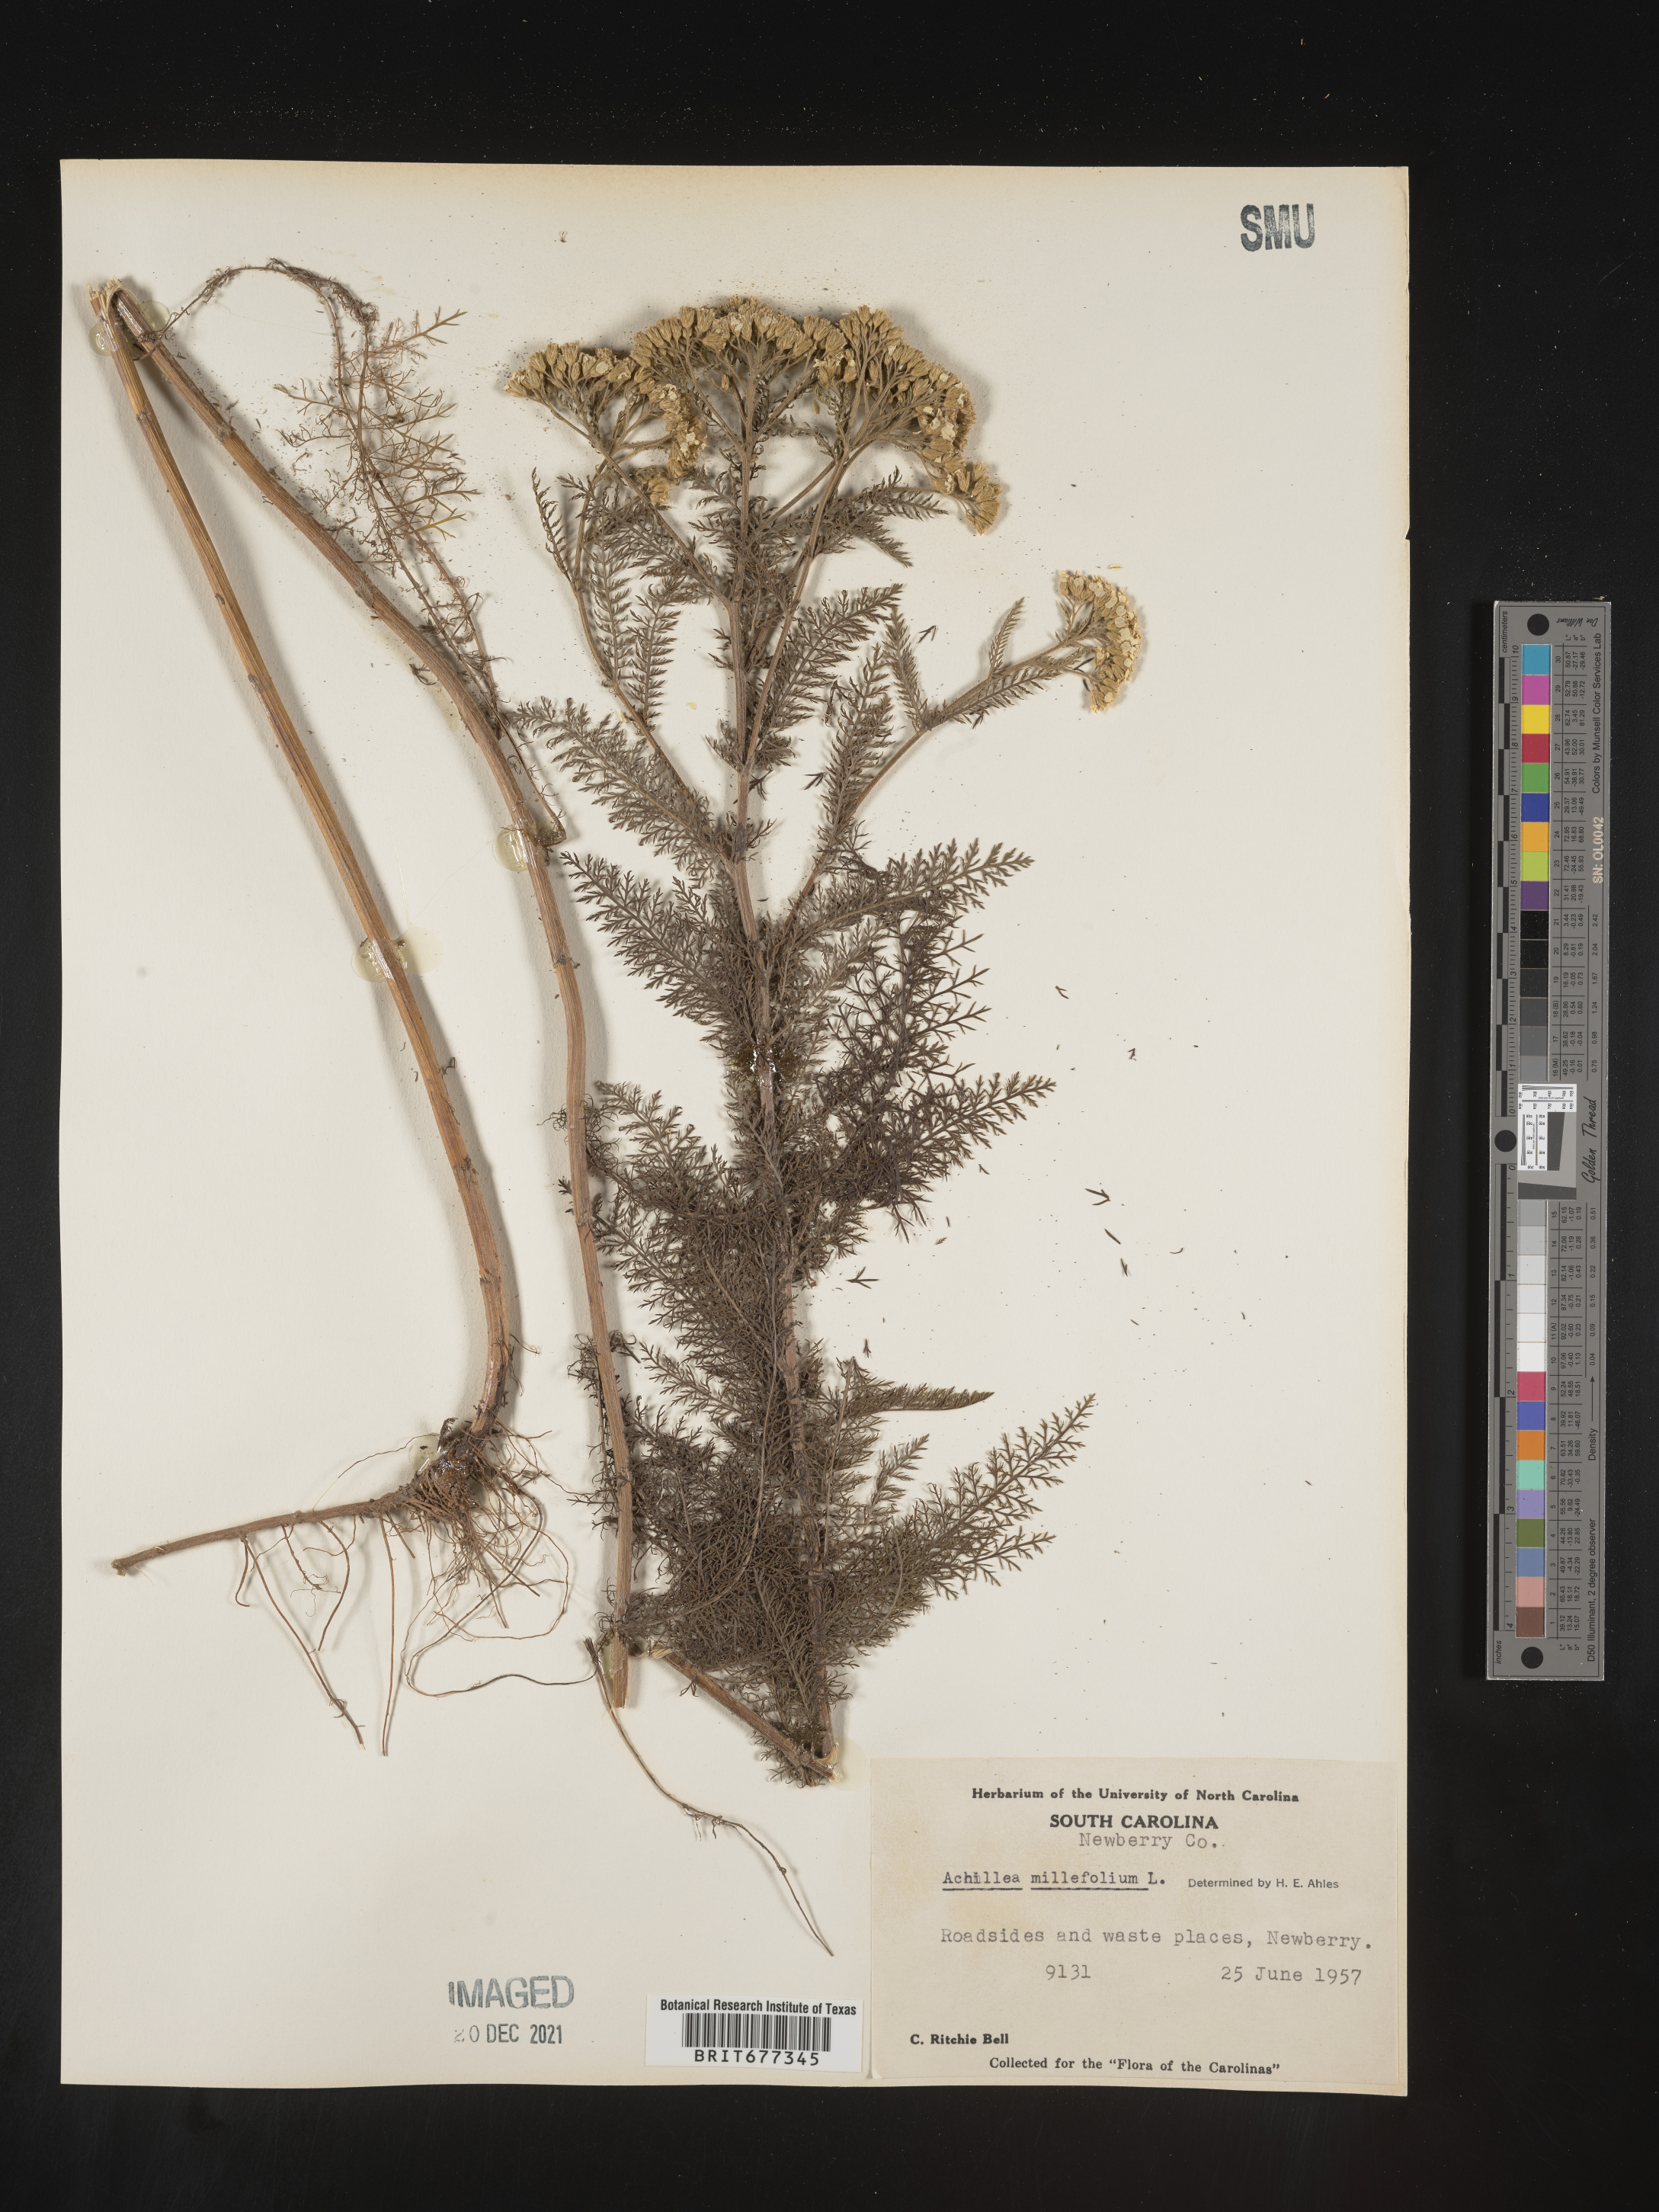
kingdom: Plantae
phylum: Tracheophyta
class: Magnoliopsida
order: Asterales
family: Asteraceae
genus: Achillea
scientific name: Achillea millefolium
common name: Yarrow
